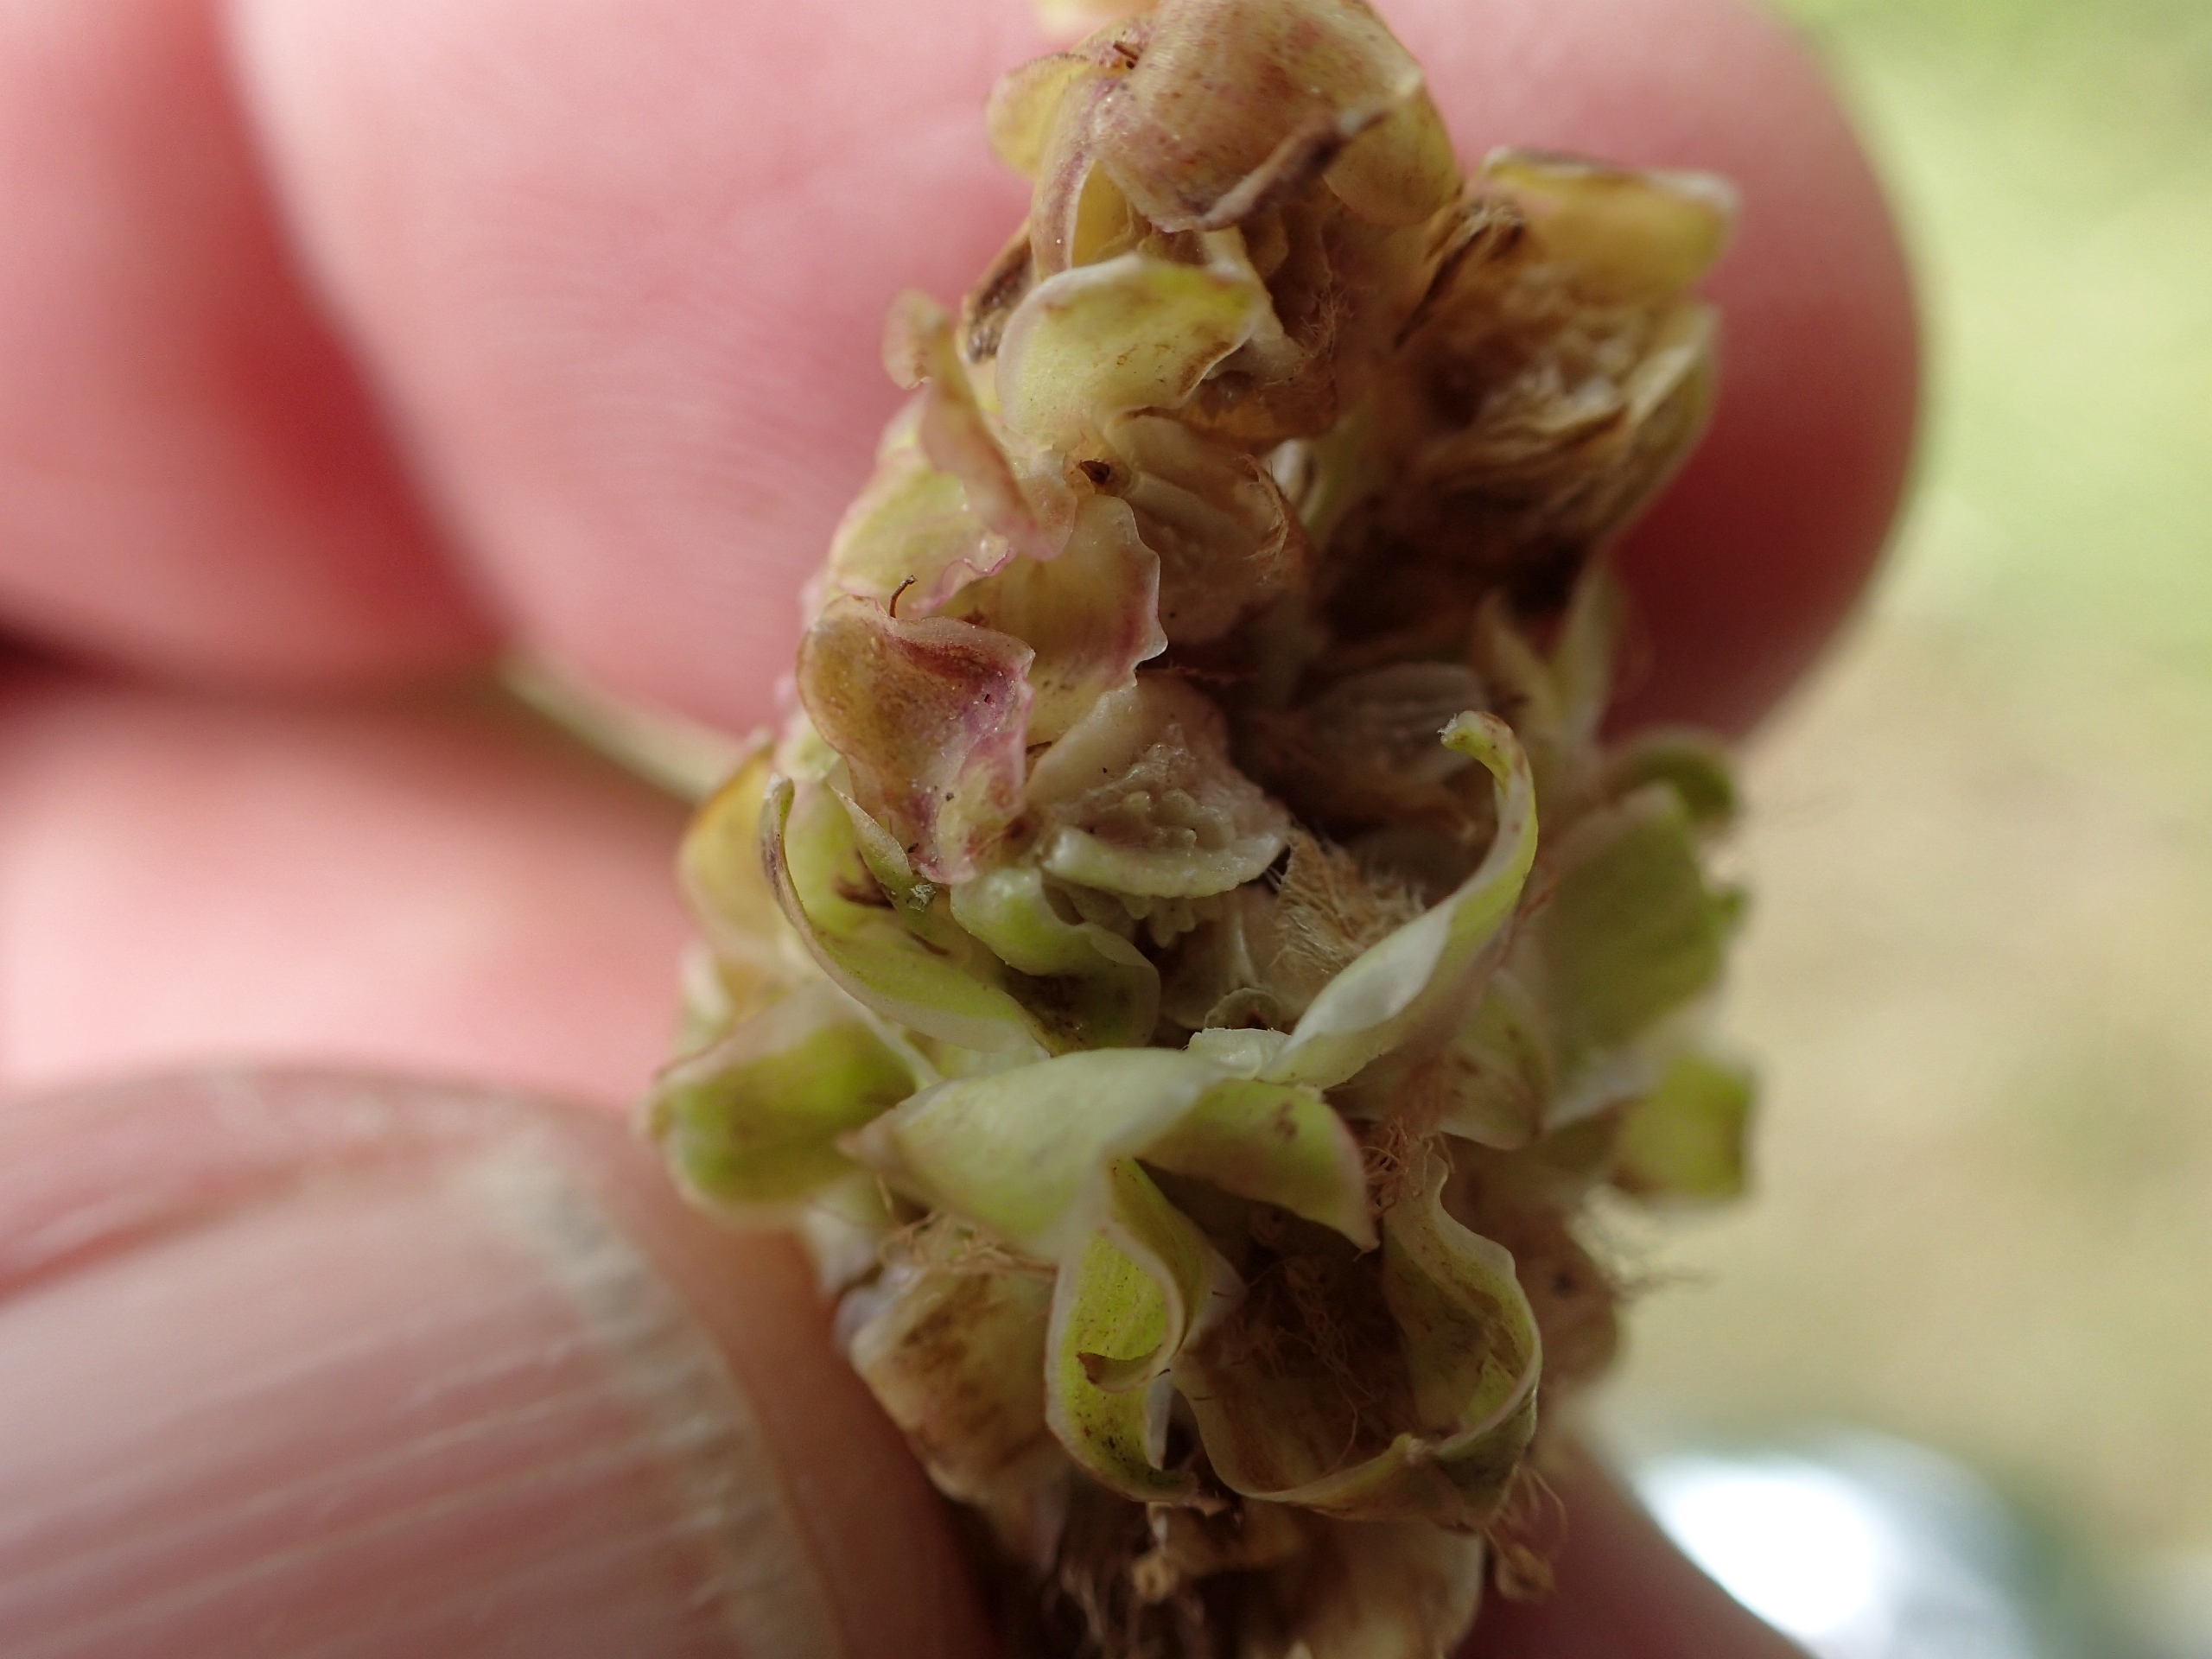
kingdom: Plantae
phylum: Tracheophyta
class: Magnoliopsida
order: Rosales
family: Rosaceae
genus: Poterium
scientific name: Poterium sanguisorba
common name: Vingefrøet bibernelle
